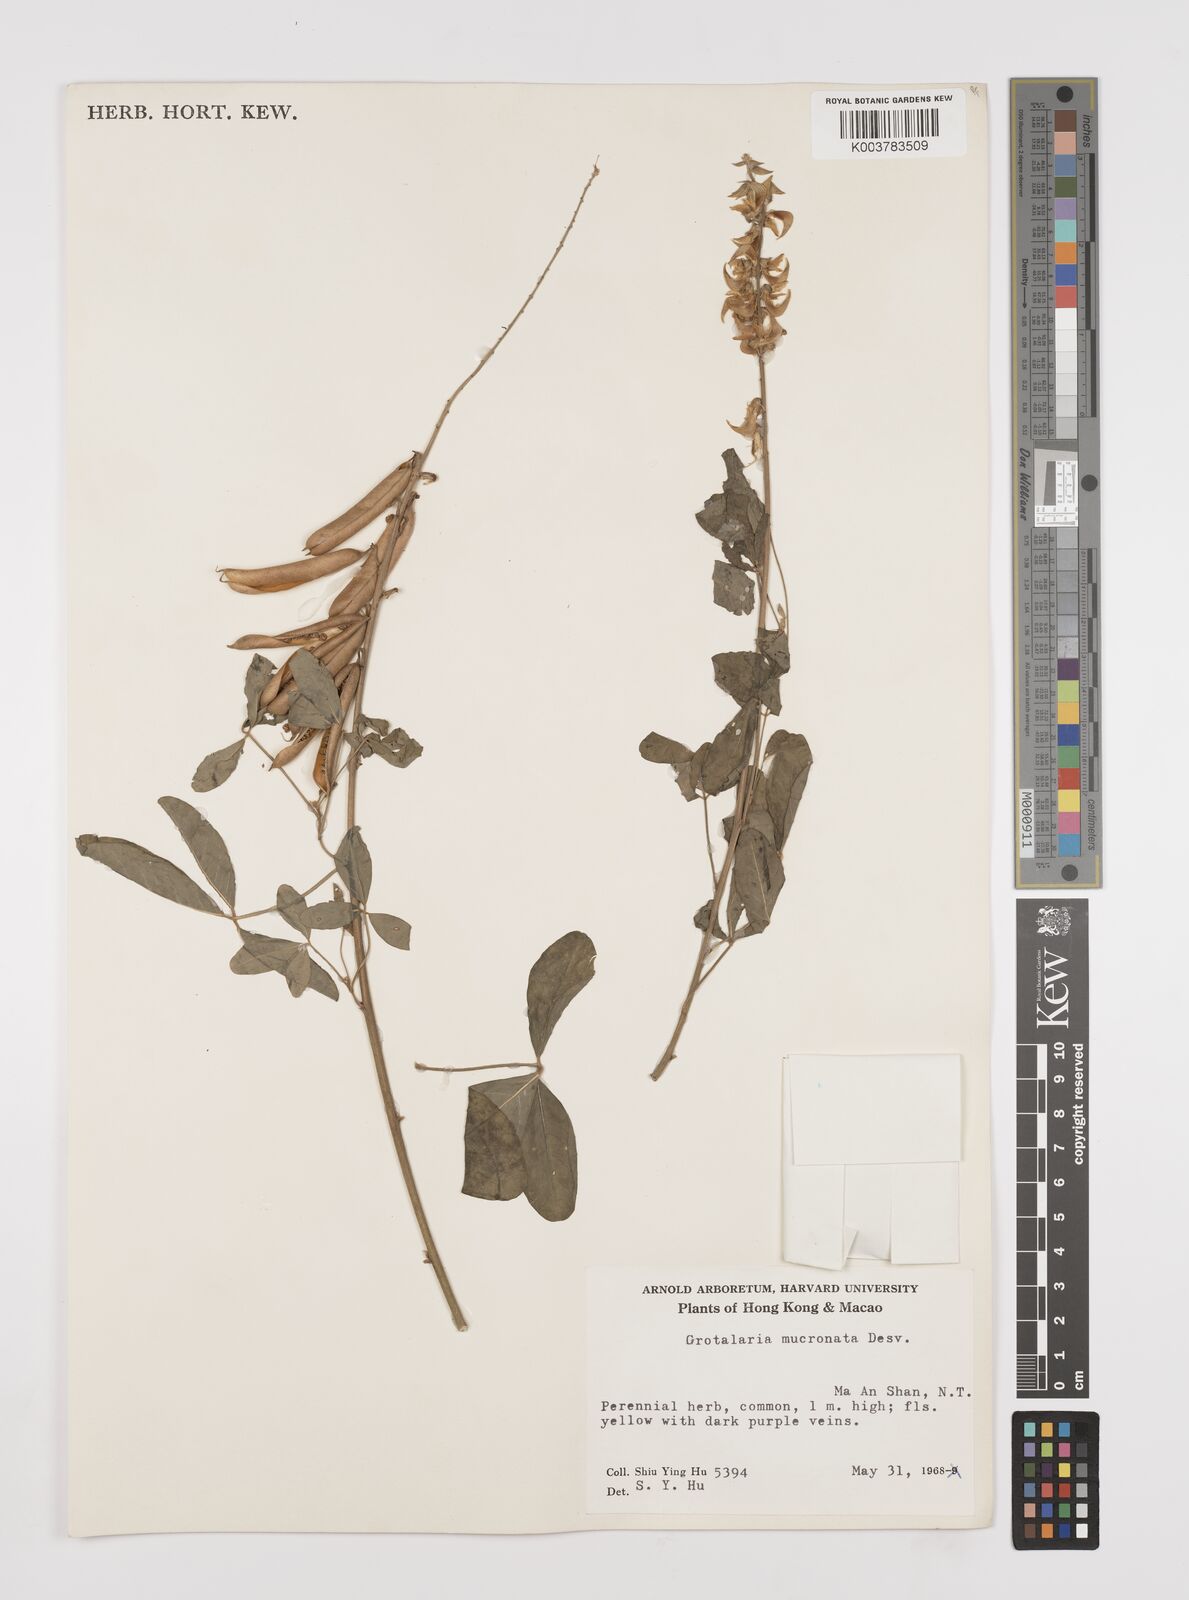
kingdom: Plantae
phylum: Tracheophyta
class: Magnoliopsida
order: Fabales
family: Fabaceae
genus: Crotalaria
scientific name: Crotalaria pallida
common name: Smooth rattlebox
